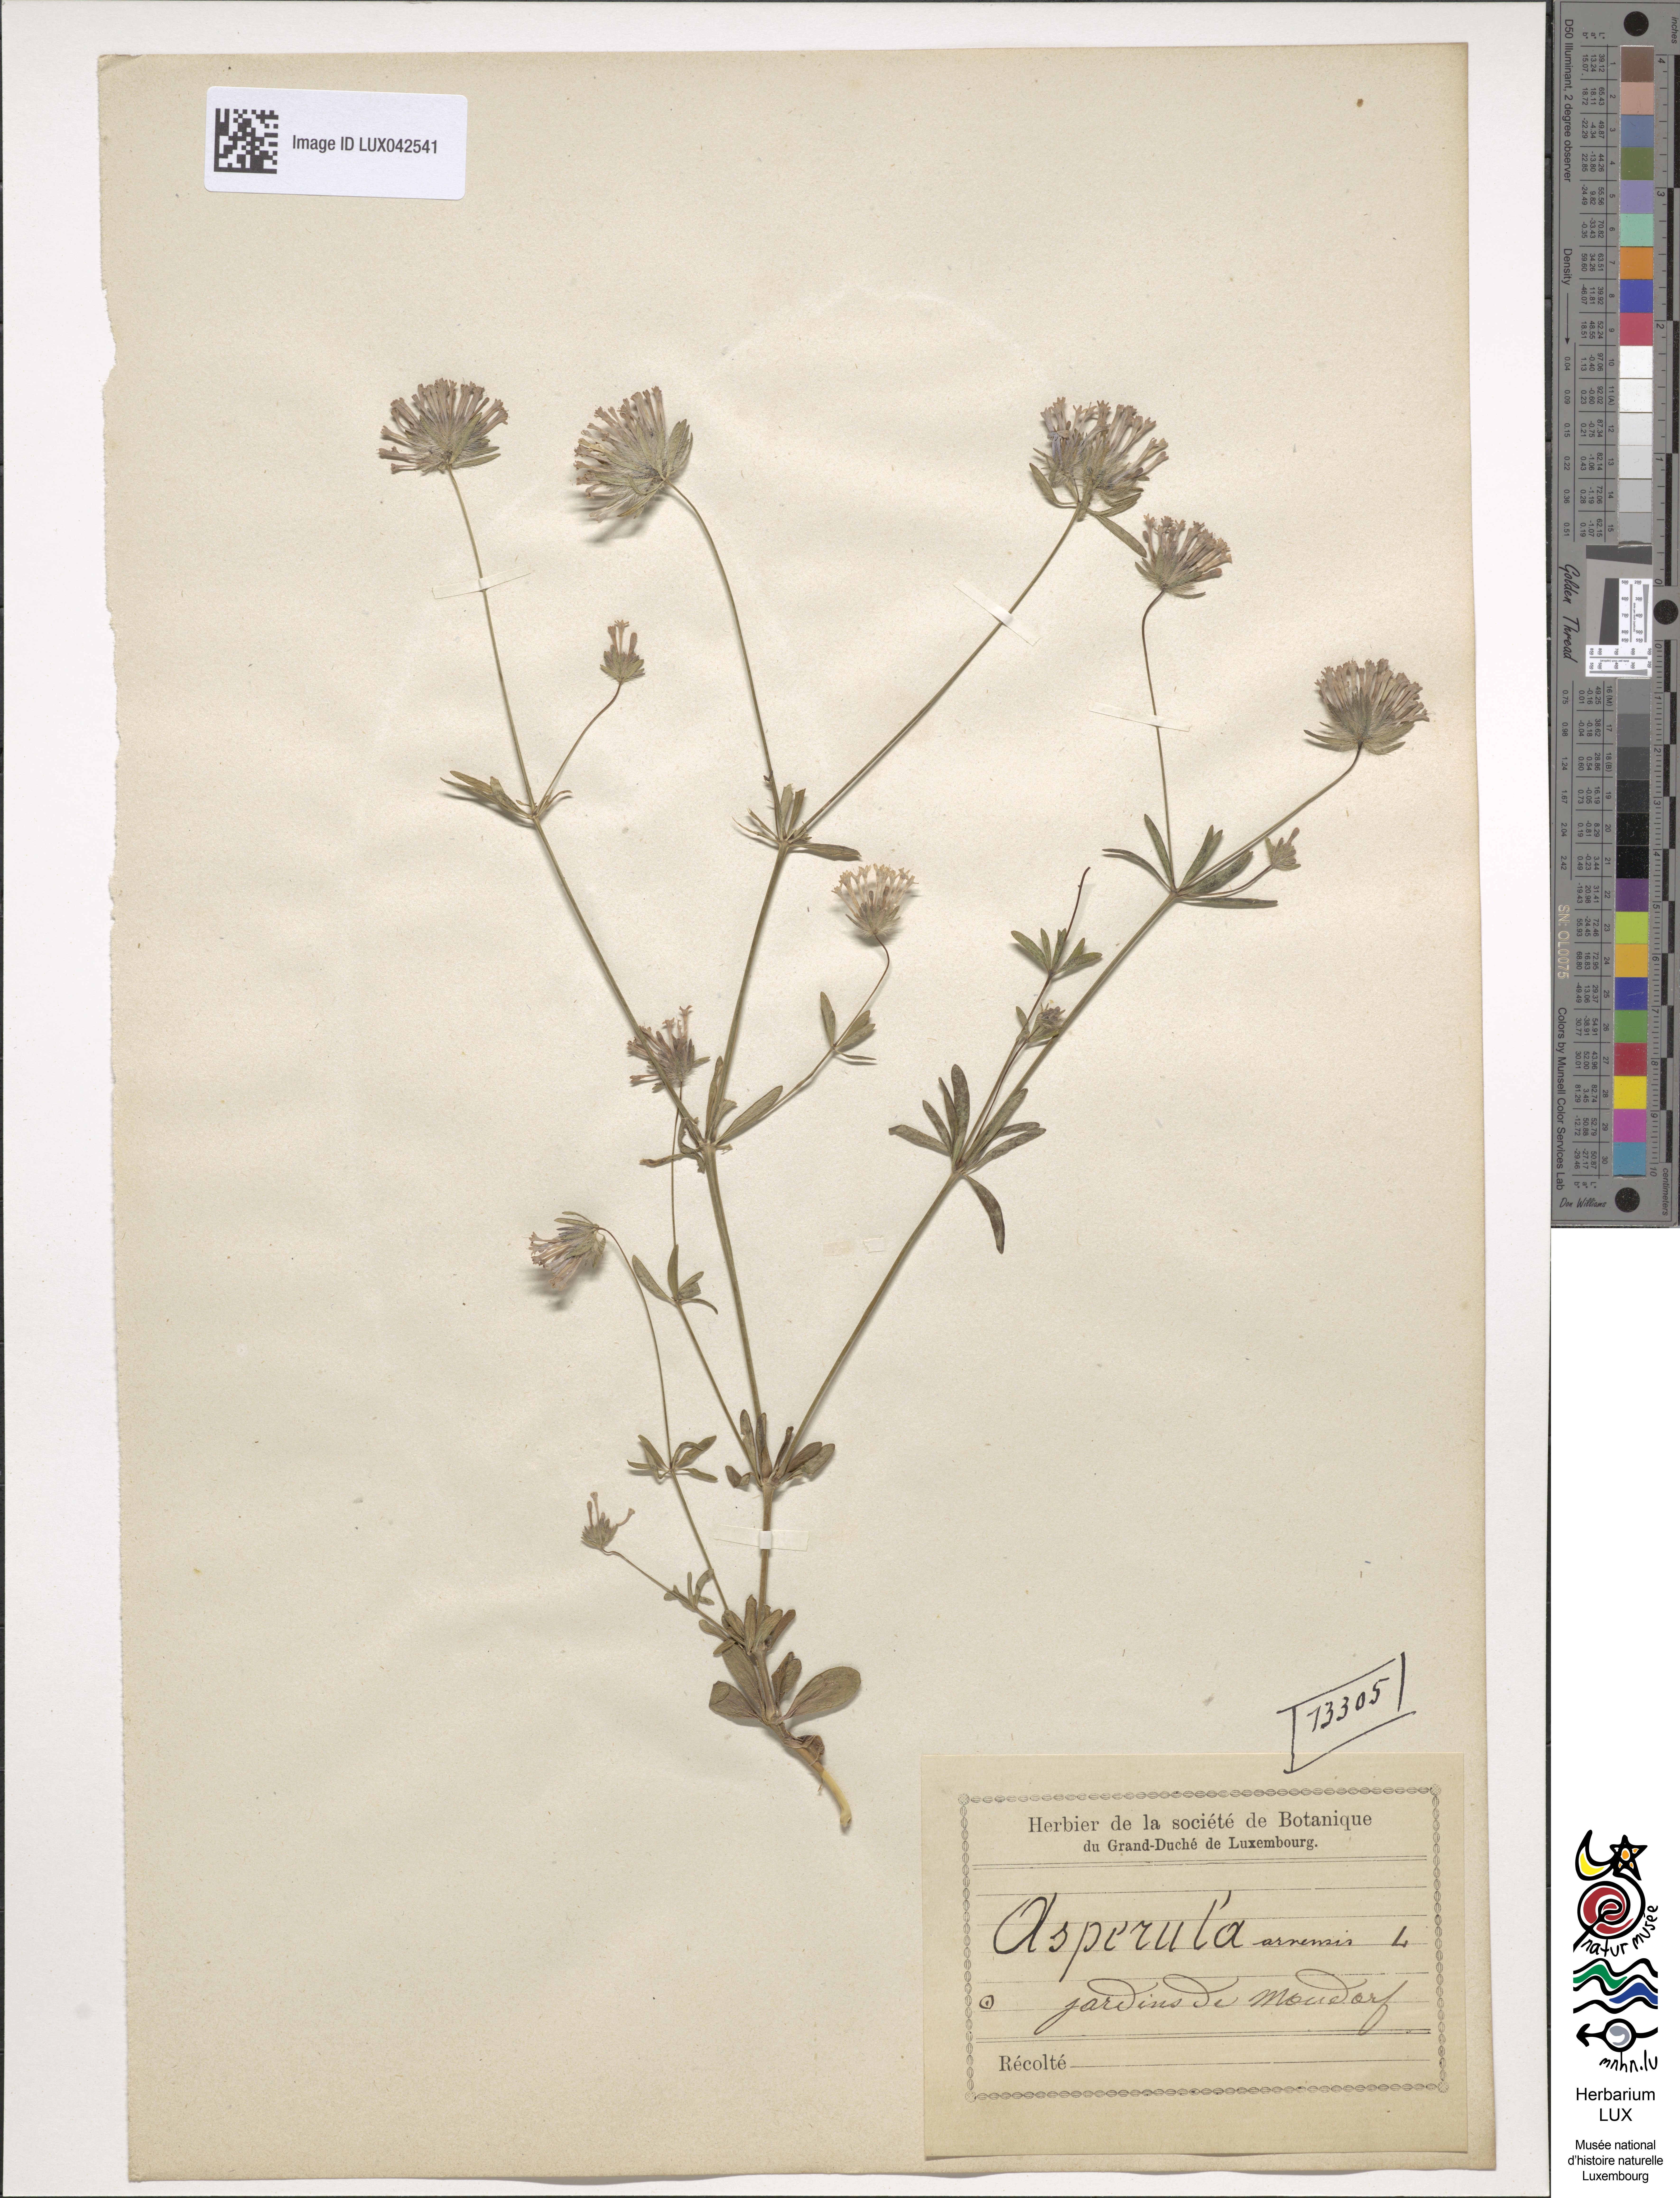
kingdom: Plantae
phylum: Tracheophyta
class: Magnoliopsida
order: Gentianales
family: Rubiaceae
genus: Asperula
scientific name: Asperula arvensis
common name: Blue woodruff
